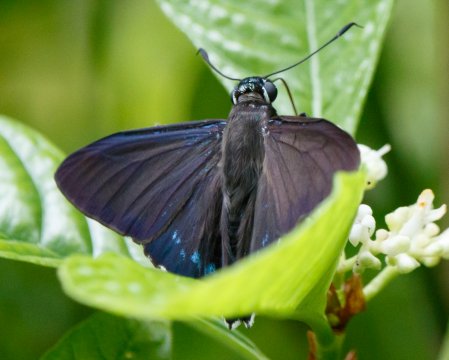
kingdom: Animalia
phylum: Arthropoda
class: Insecta
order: Lepidoptera
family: Hesperiidae
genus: Phocides
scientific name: Phocides pigmalion
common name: Mangrove Skipper
